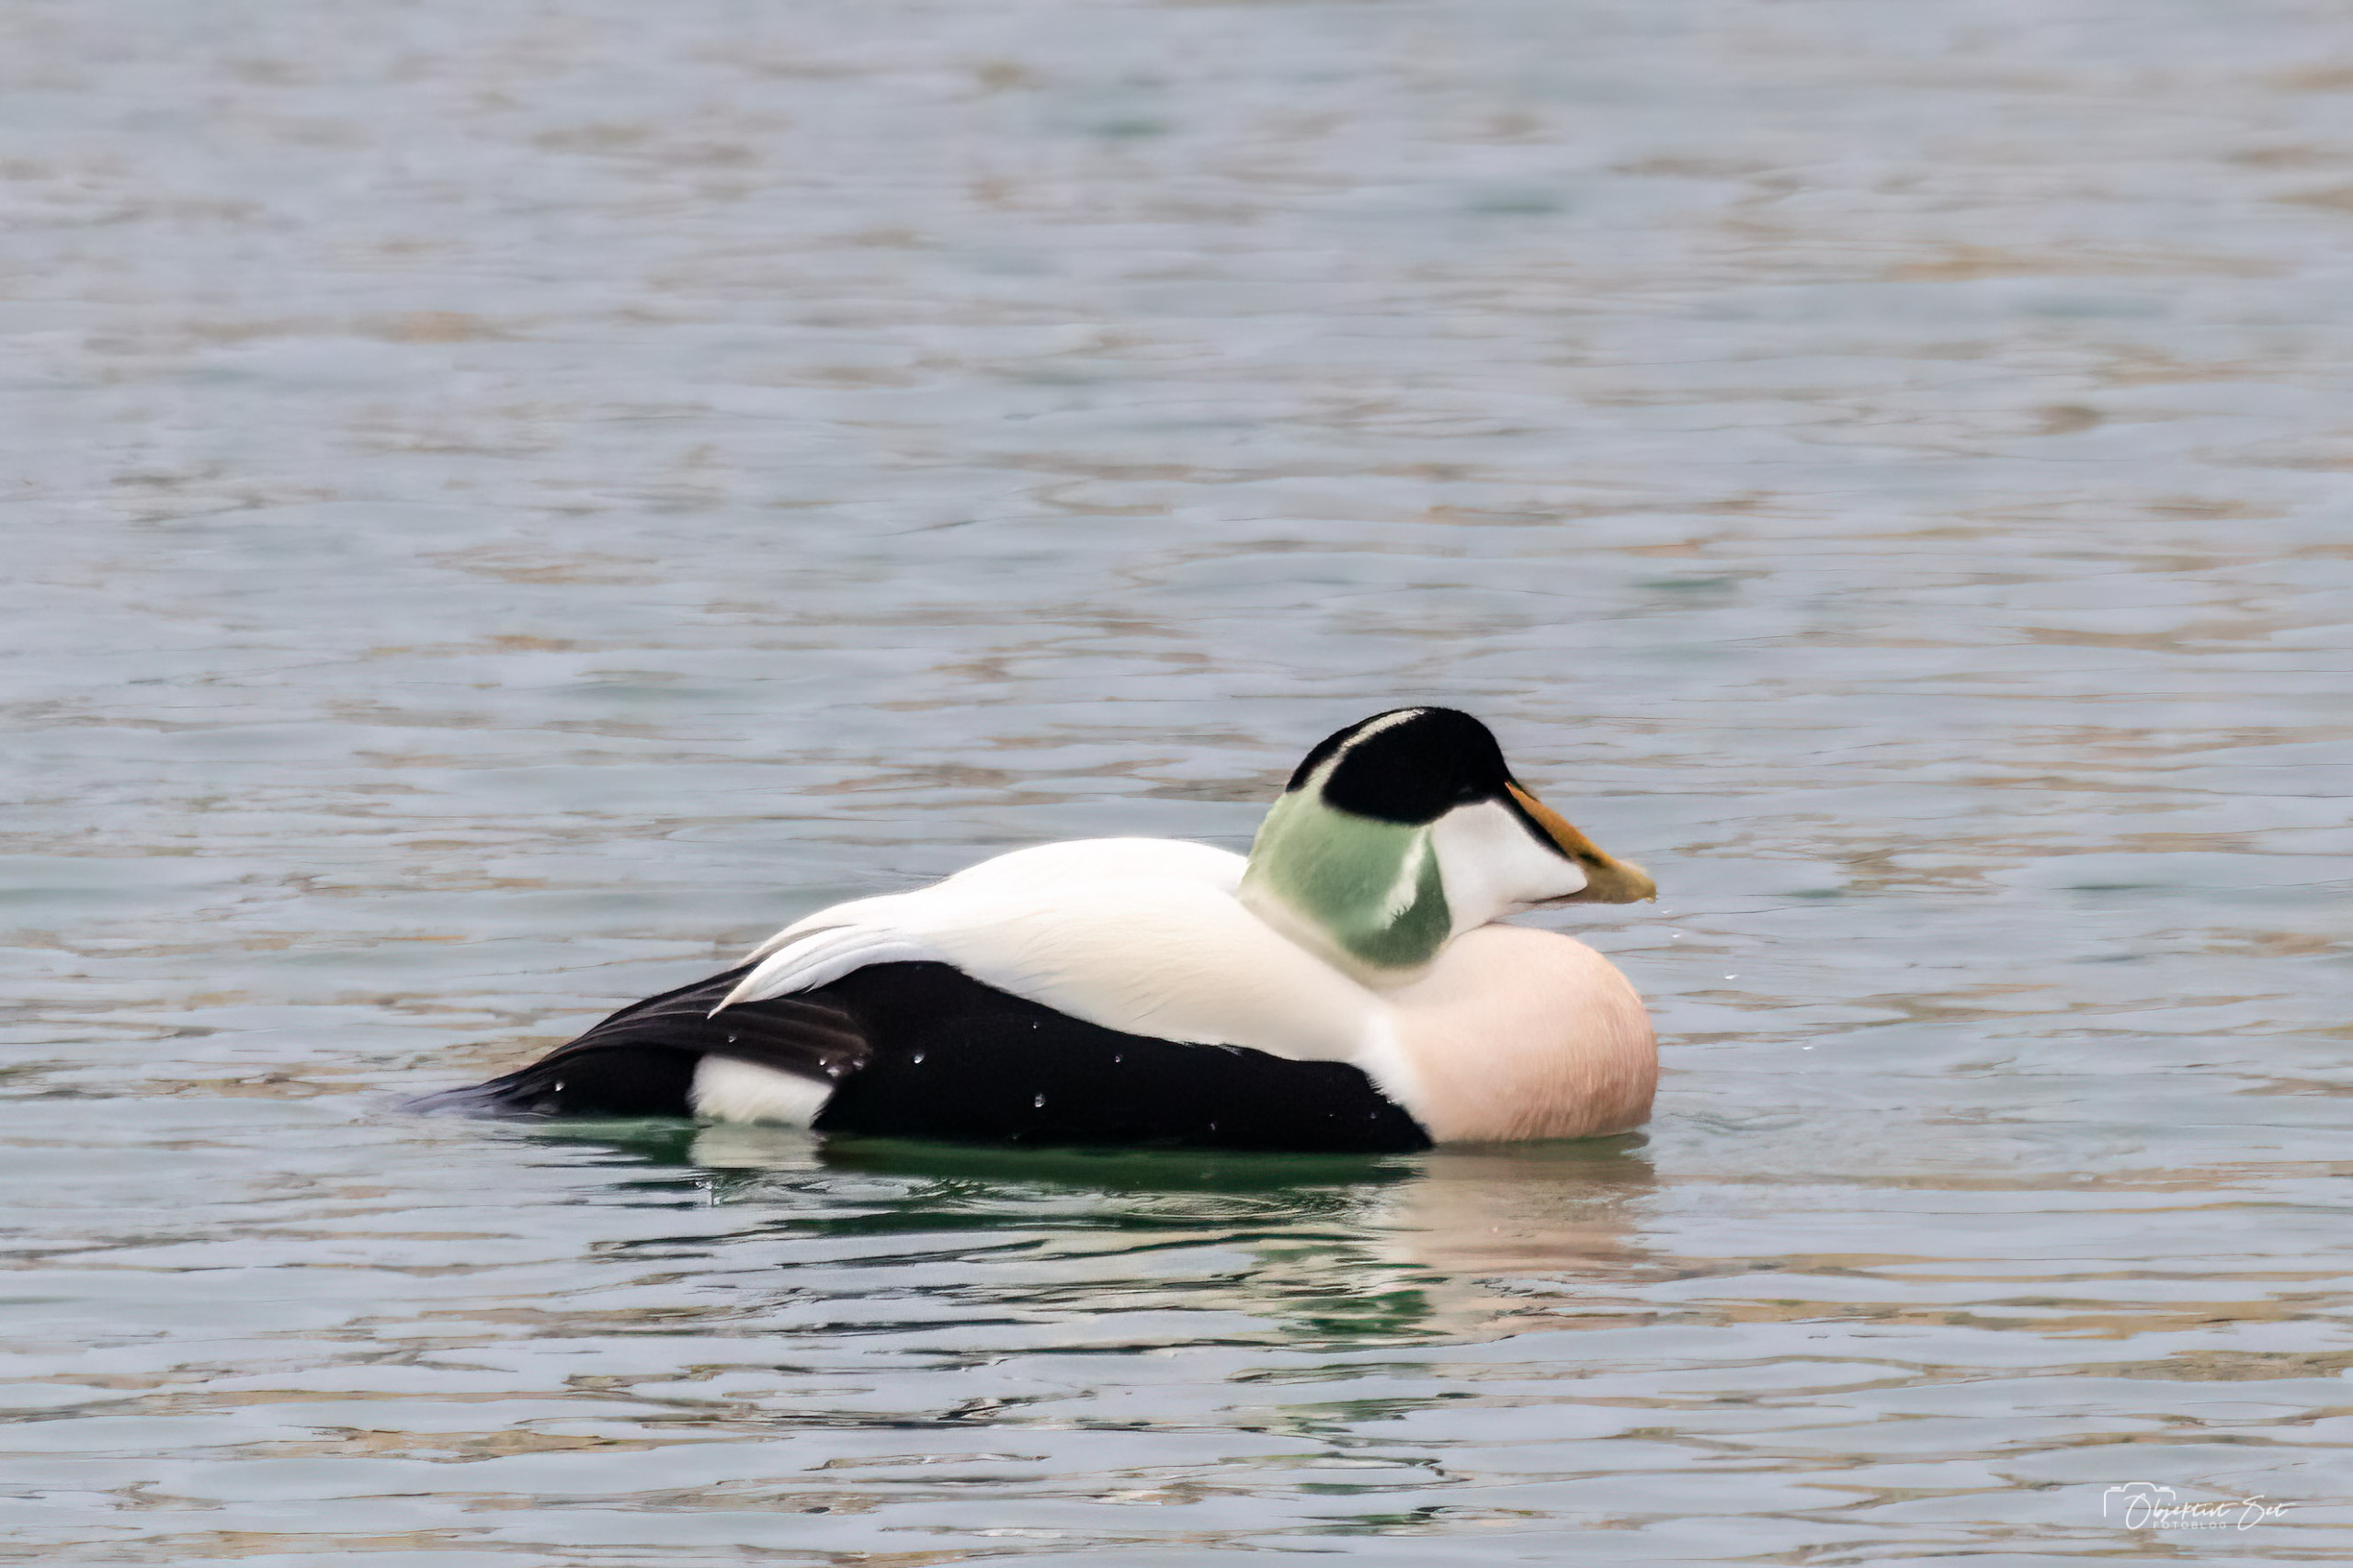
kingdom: Animalia
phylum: Chordata
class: Aves
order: Anseriformes
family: Anatidae
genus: Somateria
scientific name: Somateria mollissima
